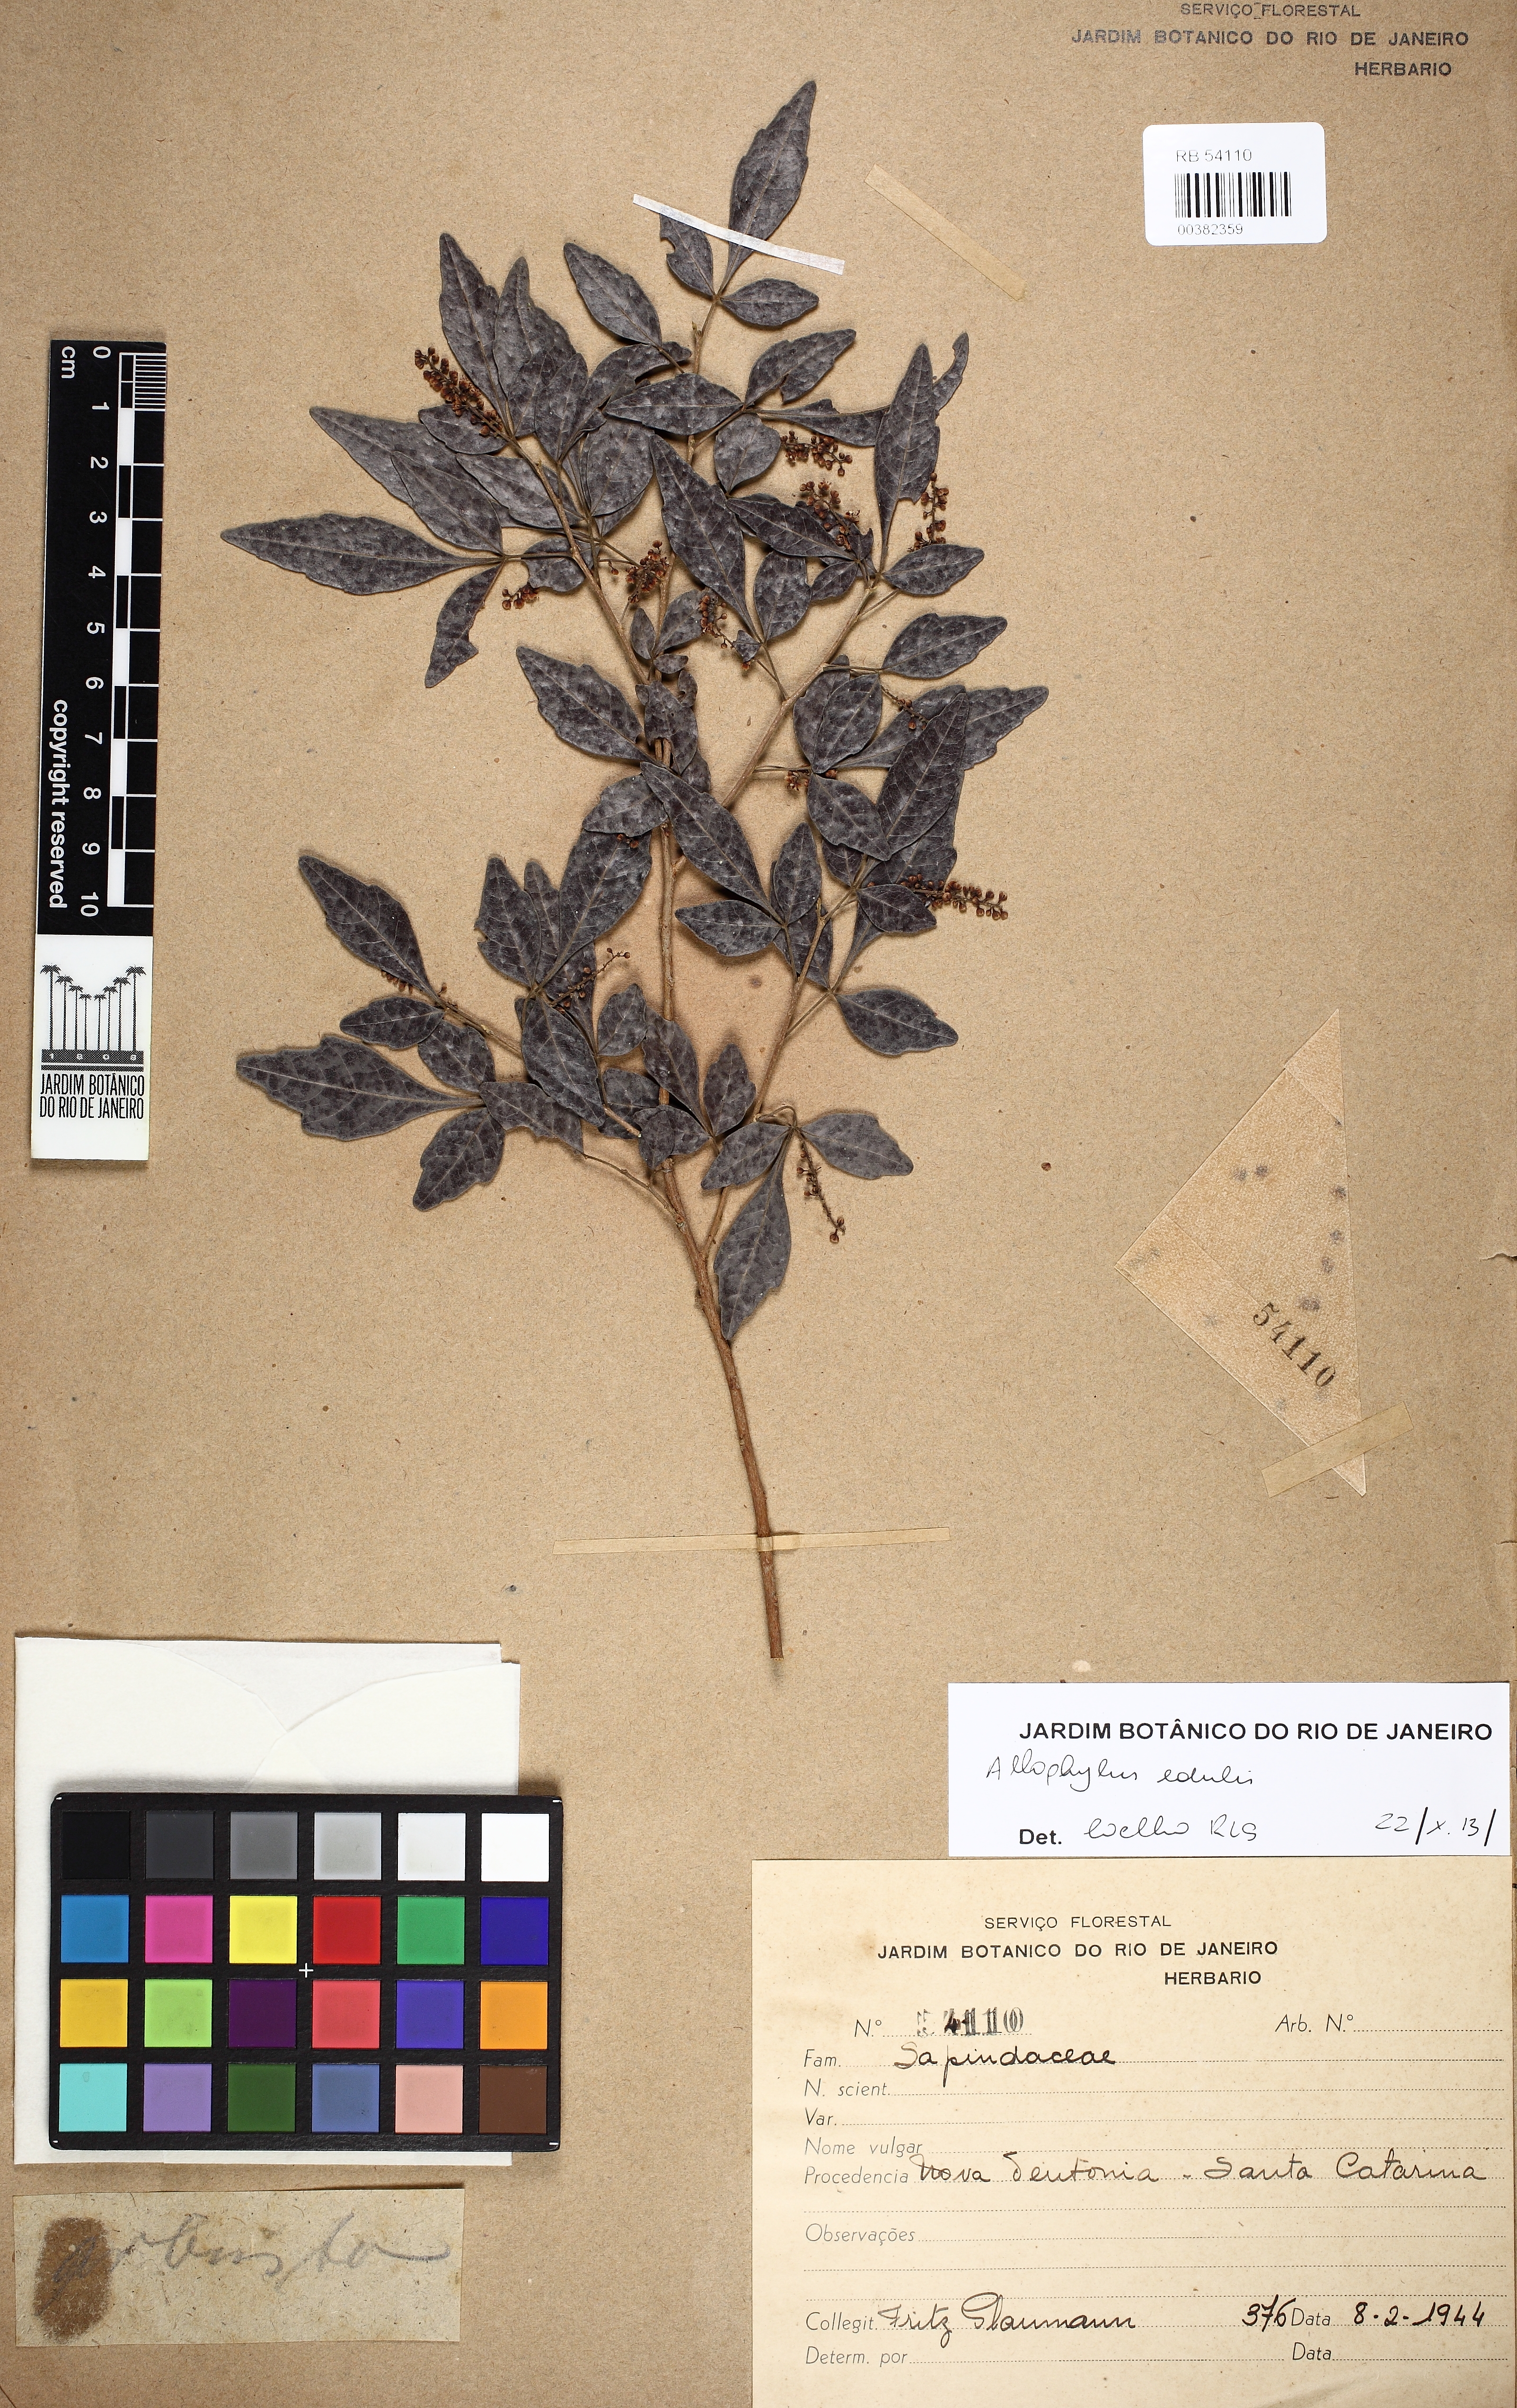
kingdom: Plantae
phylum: Tracheophyta
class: Magnoliopsida
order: Sapindales
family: Sapindaceae
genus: Allophylus
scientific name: Allophylus guaraniticus
